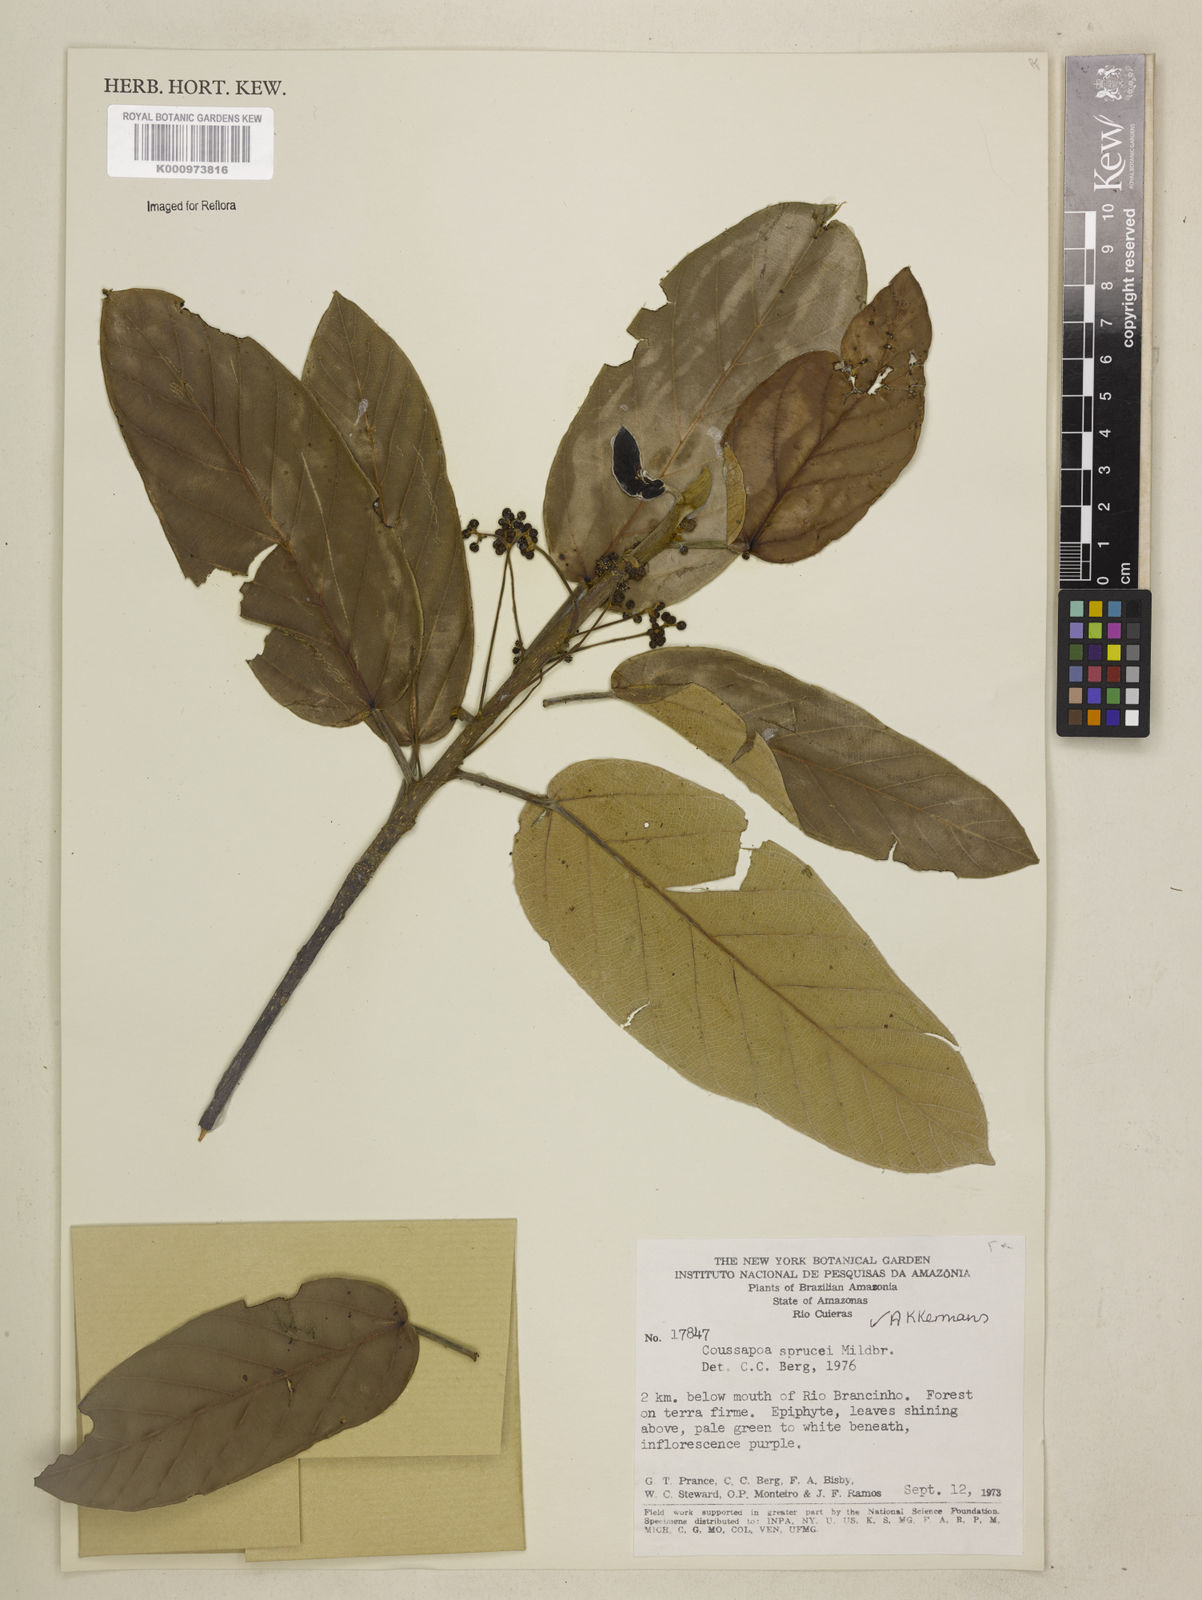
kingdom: Plantae
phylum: Tracheophyta
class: Magnoliopsida
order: Rosales
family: Urticaceae
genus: Coussapoa
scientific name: Coussapoa sprucei
